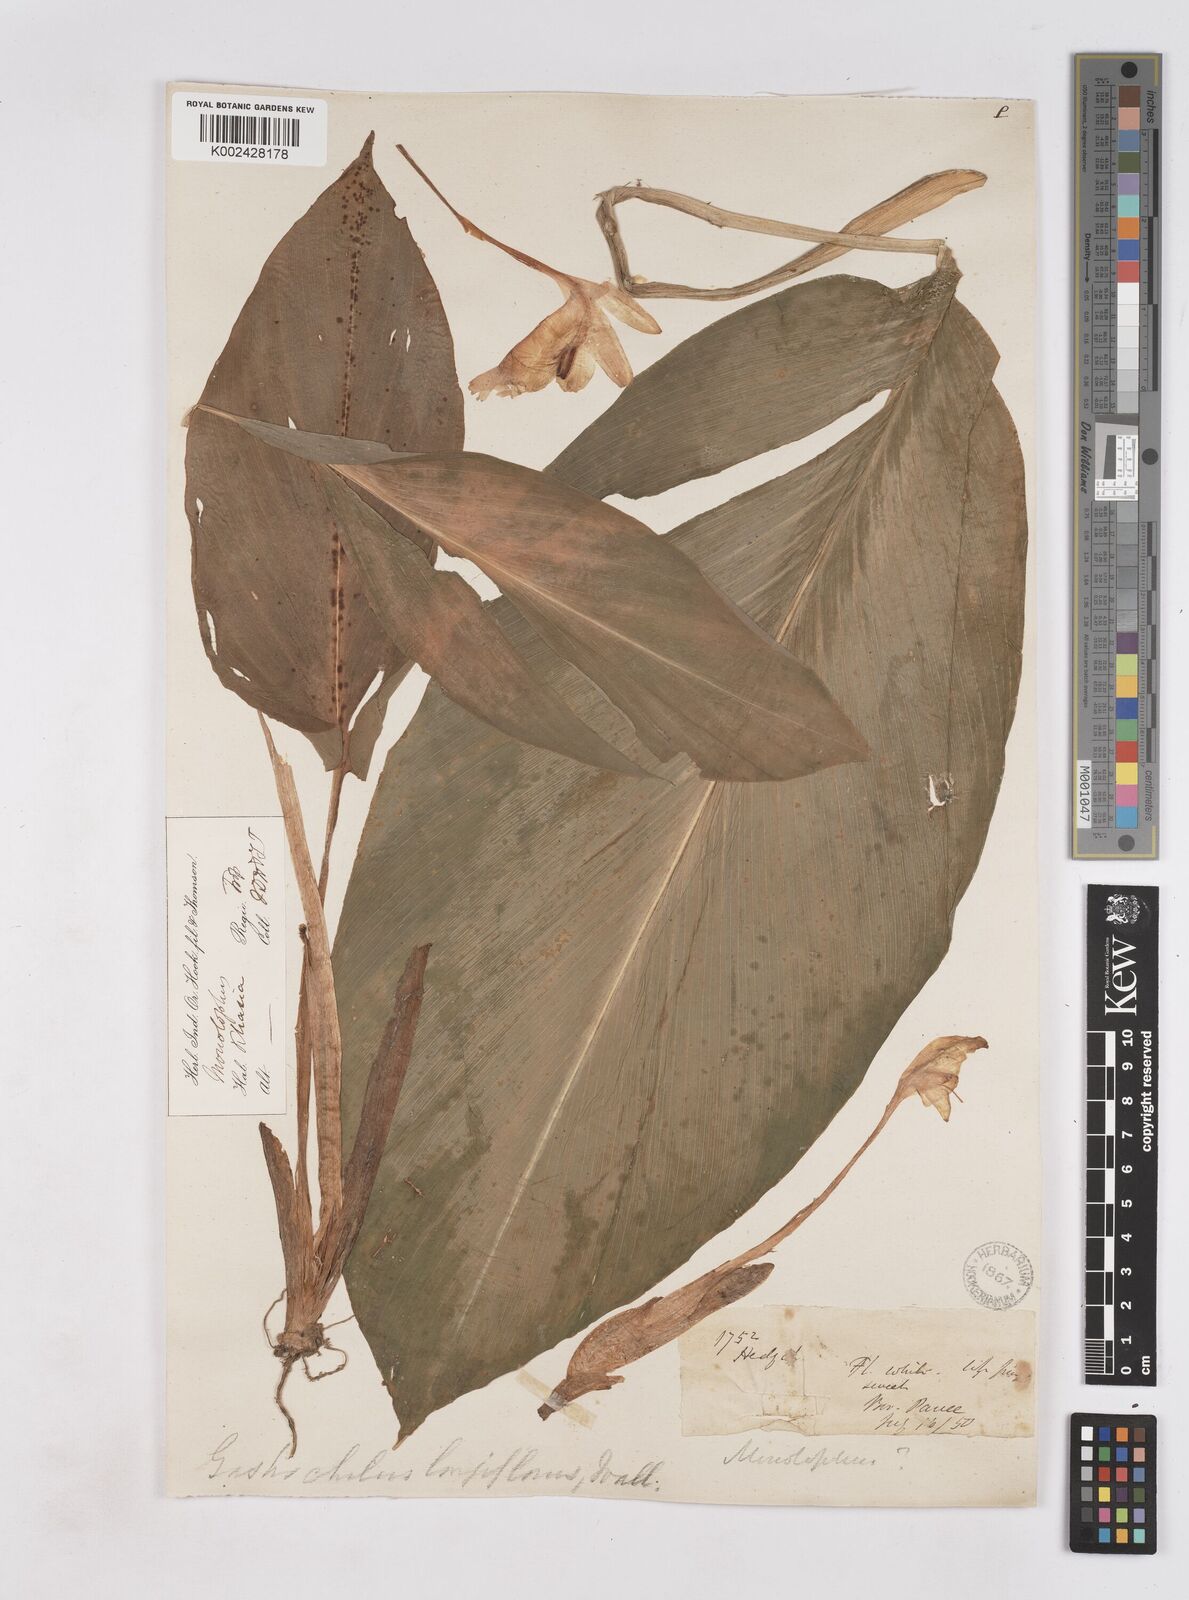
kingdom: Plantae
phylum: Tracheophyta
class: Liliopsida
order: Zingiberales
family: Zingiberaceae
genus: Boesenbergia
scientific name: Boesenbergia longiflora
